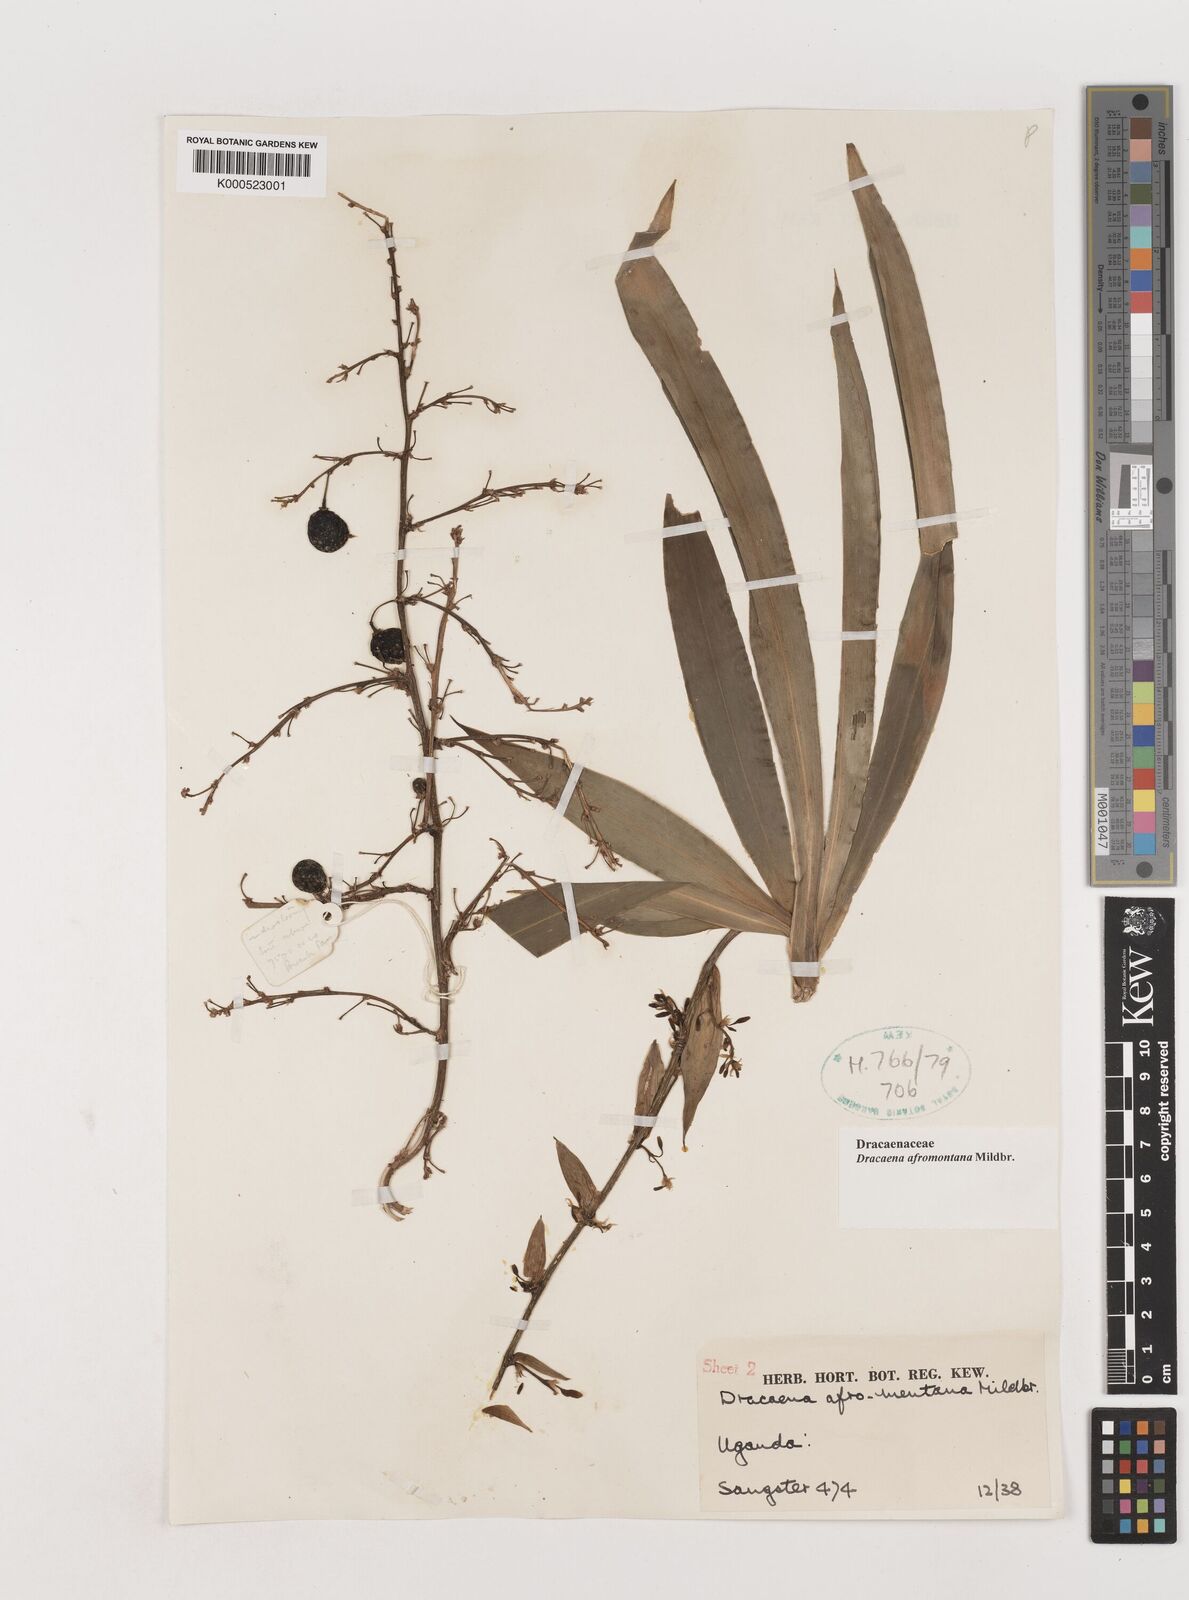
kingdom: Plantae
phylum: Tracheophyta
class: Liliopsida
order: Asparagales
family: Asparagaceae
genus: Dracaena
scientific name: Dracaena afromontana
